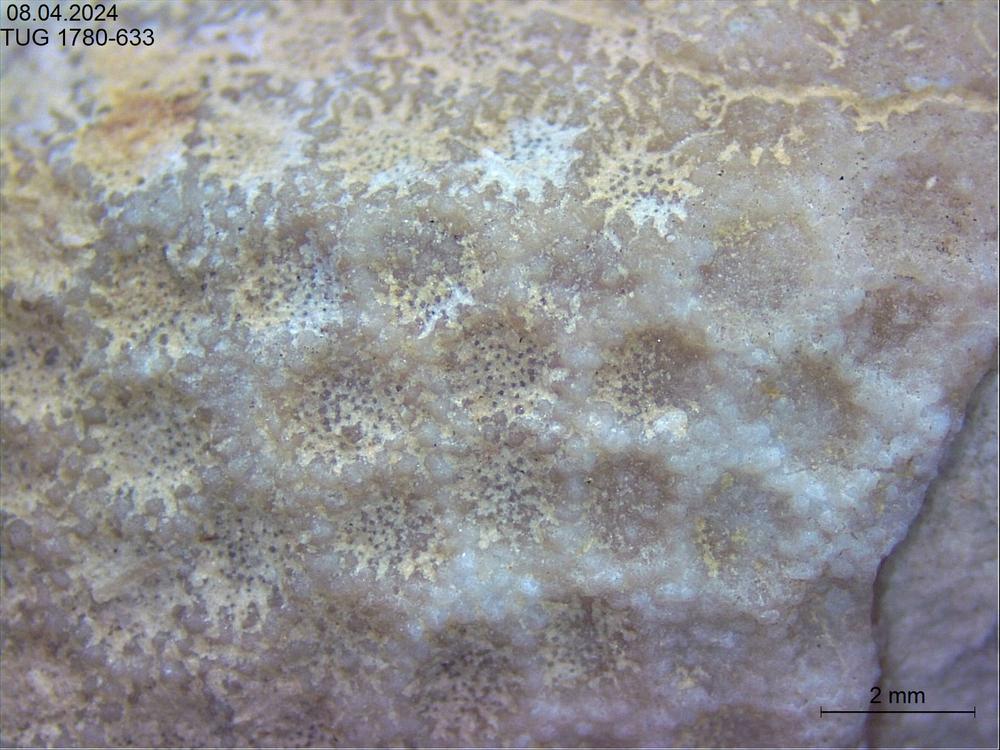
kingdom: Animalia
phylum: Cnidaria
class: Anthozoa
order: Heliolitina
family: Heliolitidae
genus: Heliolites
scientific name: Heliolites
